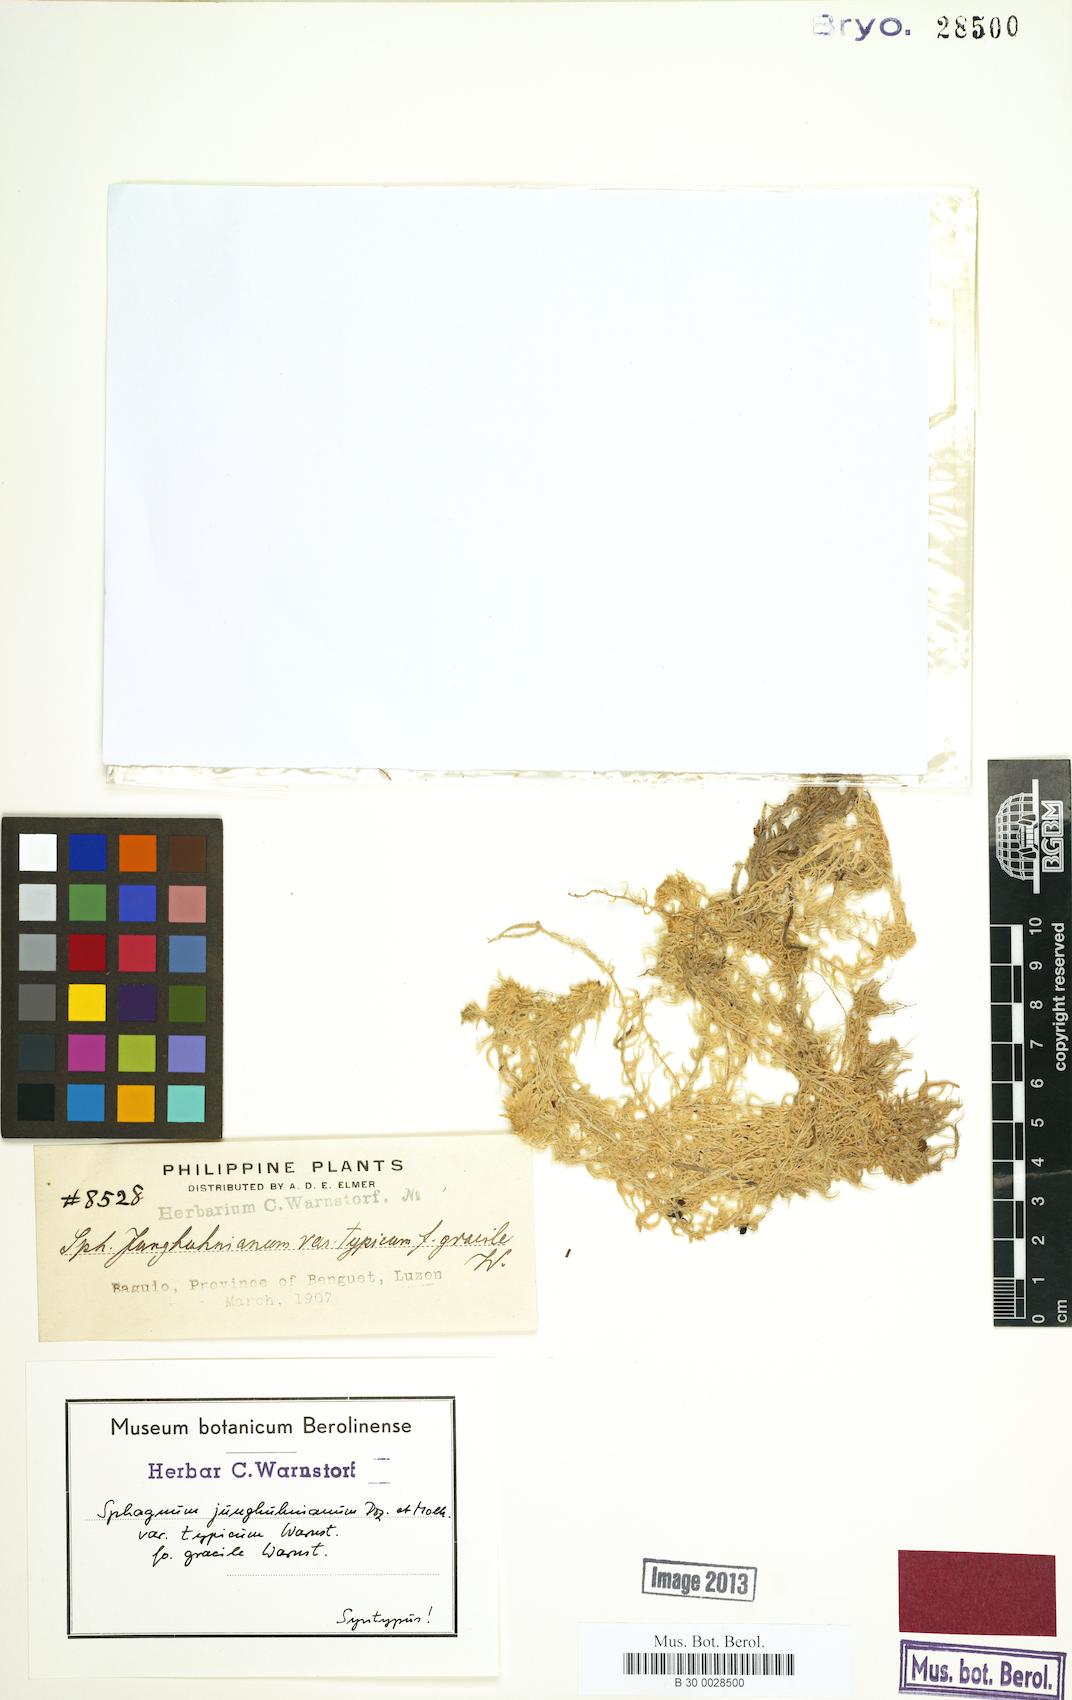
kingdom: Plantae
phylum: Bryophyta
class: Sphagnopsida
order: Sphagnales
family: Sphagnaceae
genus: Sphagnum
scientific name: Sphagnum junghuhnianum
